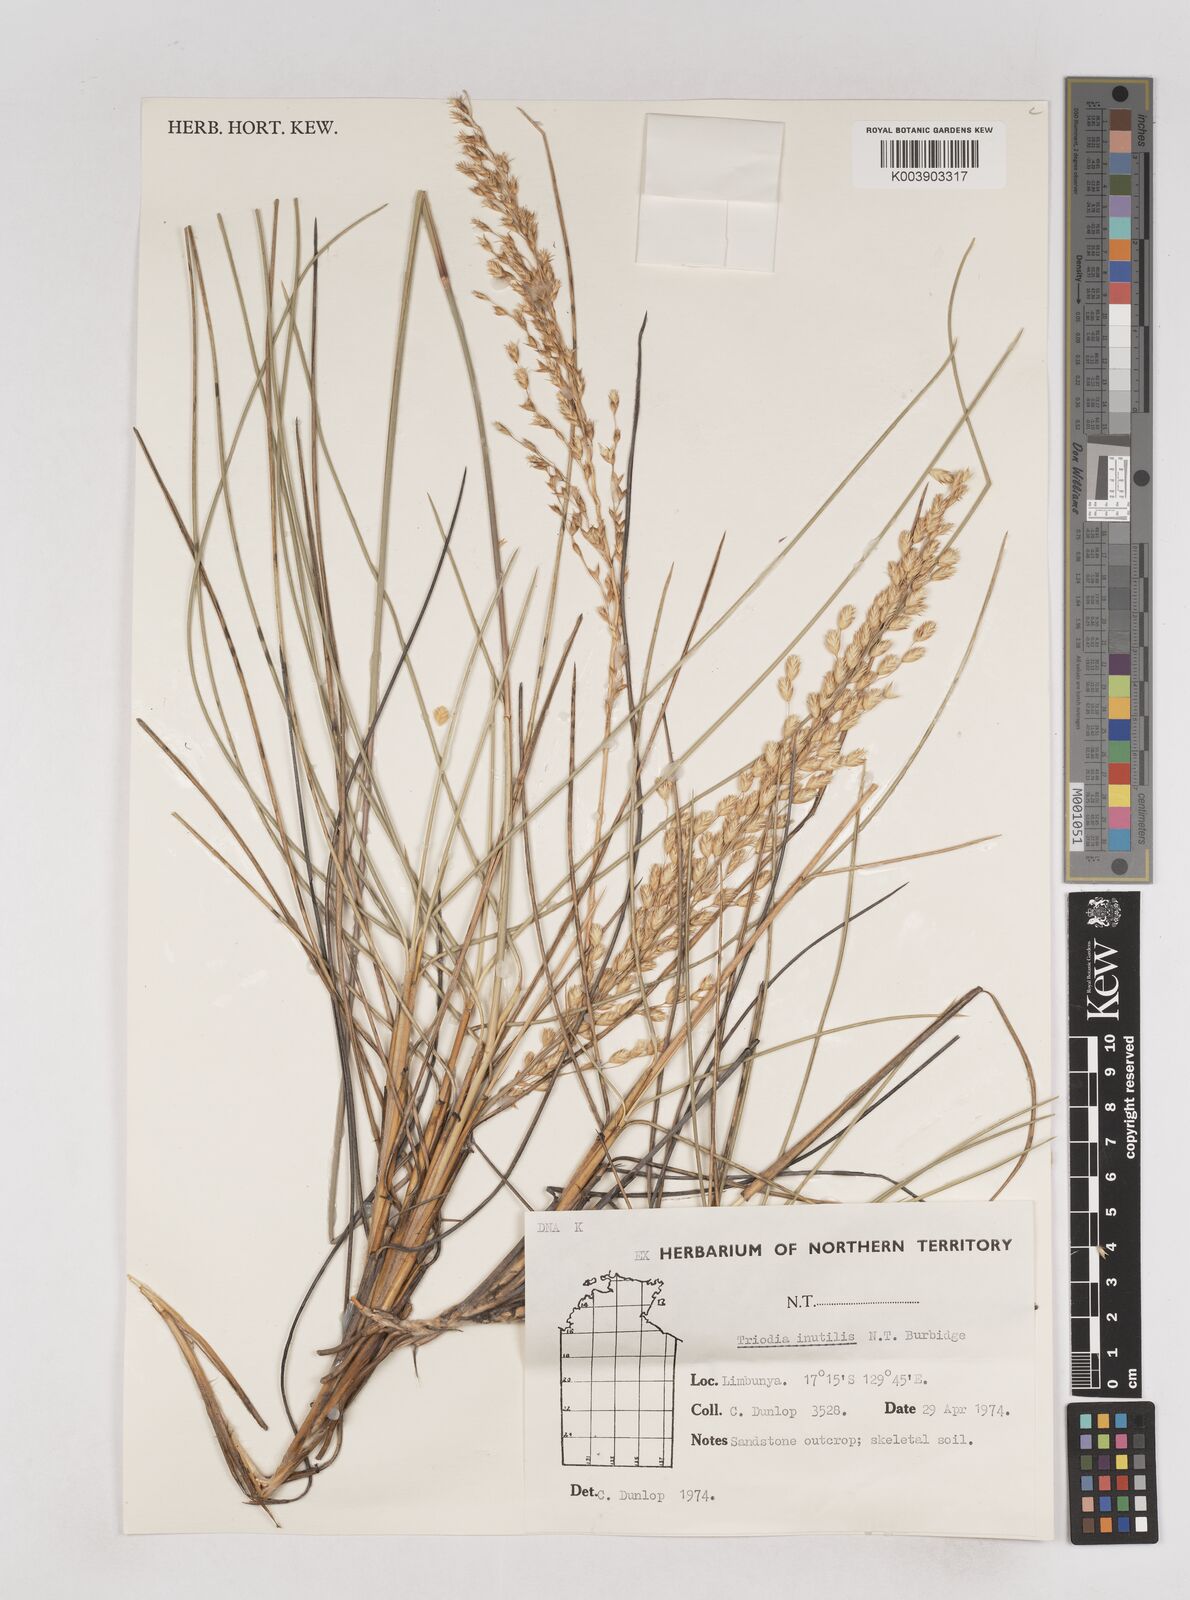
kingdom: Plantae
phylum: Tracheophyta
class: Liliopsida
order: Poales
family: Poaceae
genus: Triodia
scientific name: Triodia inutilis
